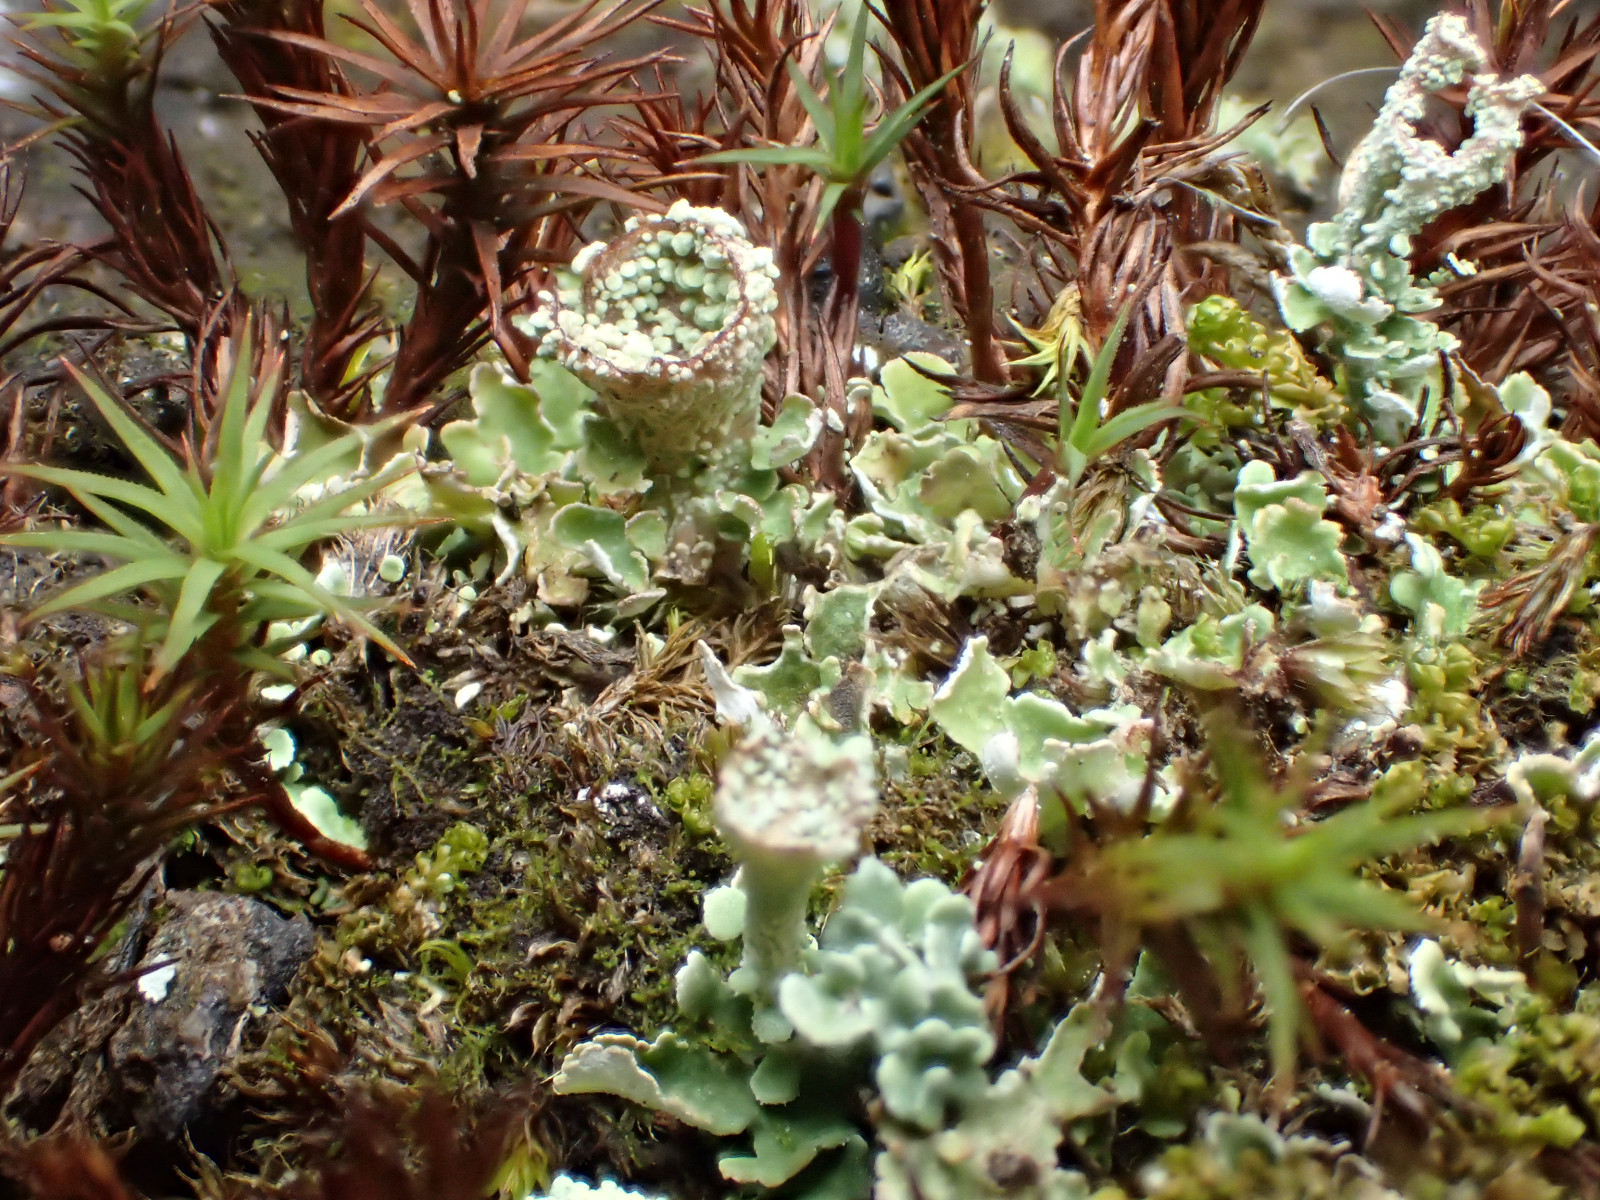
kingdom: Fungi
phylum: Ascomycota
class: Lecanoromycetes
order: Lecanorales
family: Cladoniaceae
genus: Cladonia
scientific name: Cladonia pyxidata
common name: tragt-bægerlav
